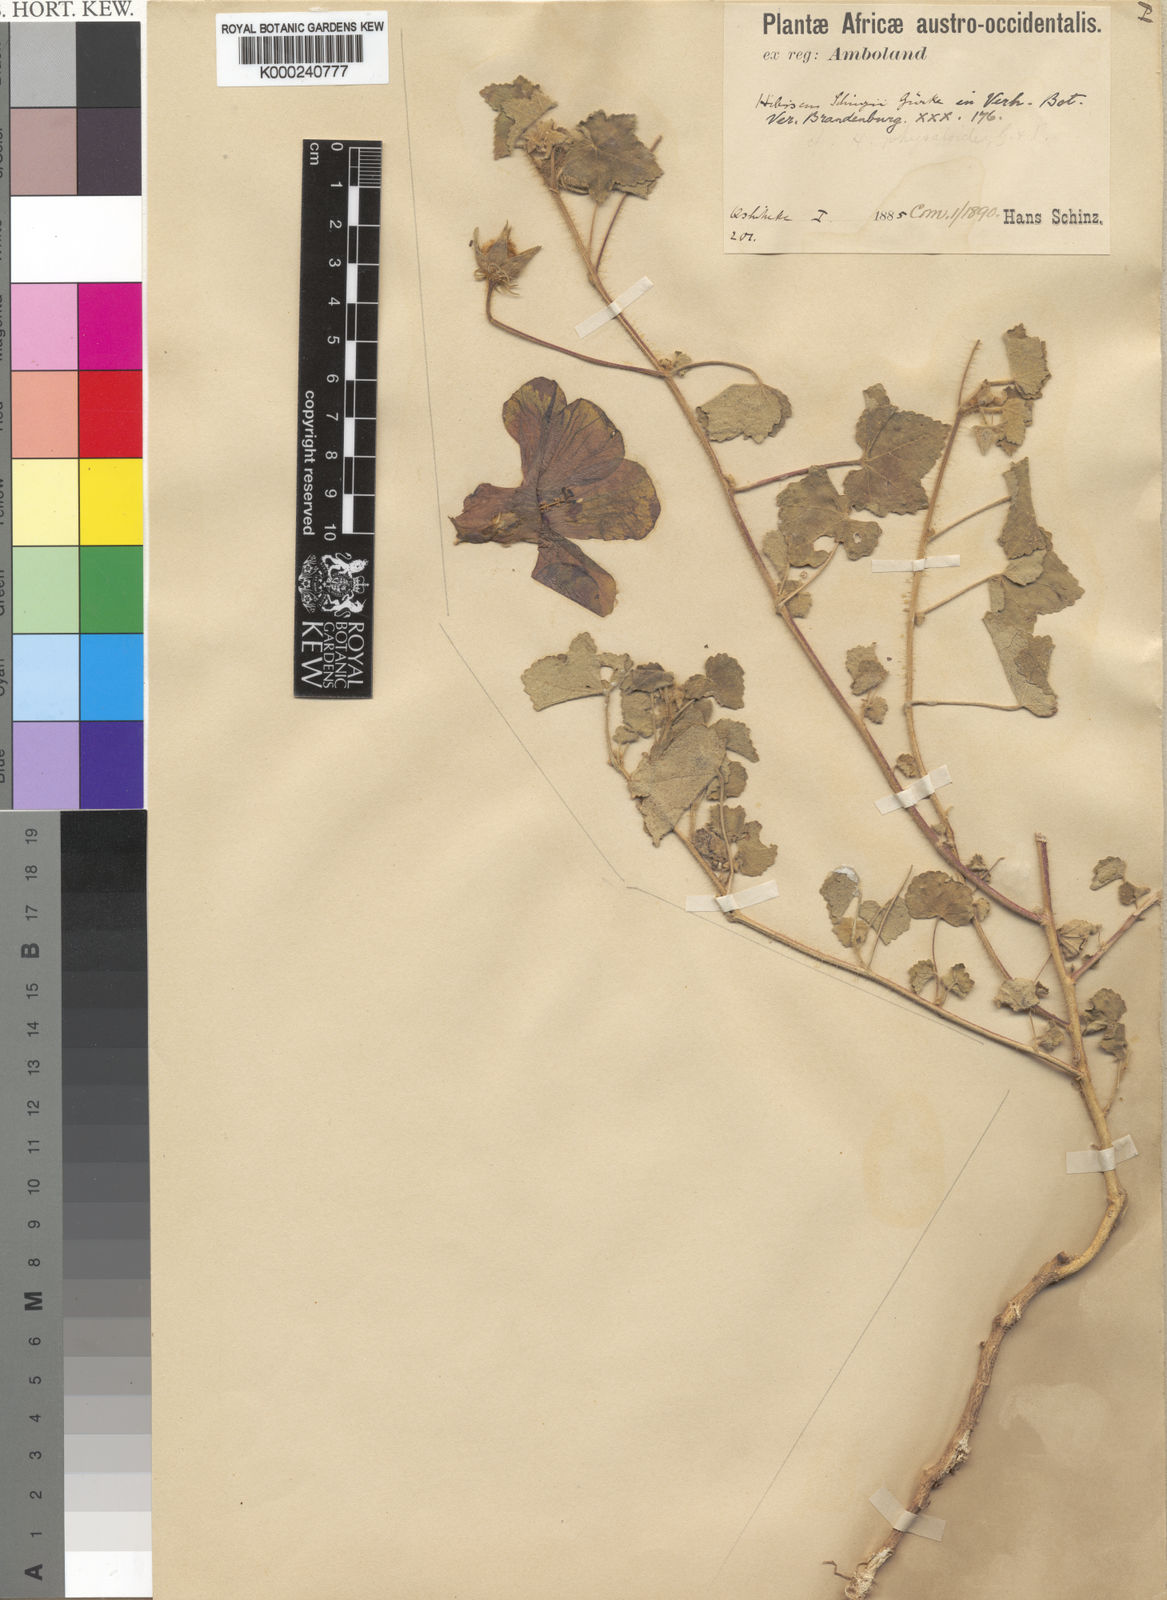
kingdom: Plantae
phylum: Tracheophyta
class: Magnoliopsida
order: Malvales
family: Malvaceae
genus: Hibiscus
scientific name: Hibiscus
